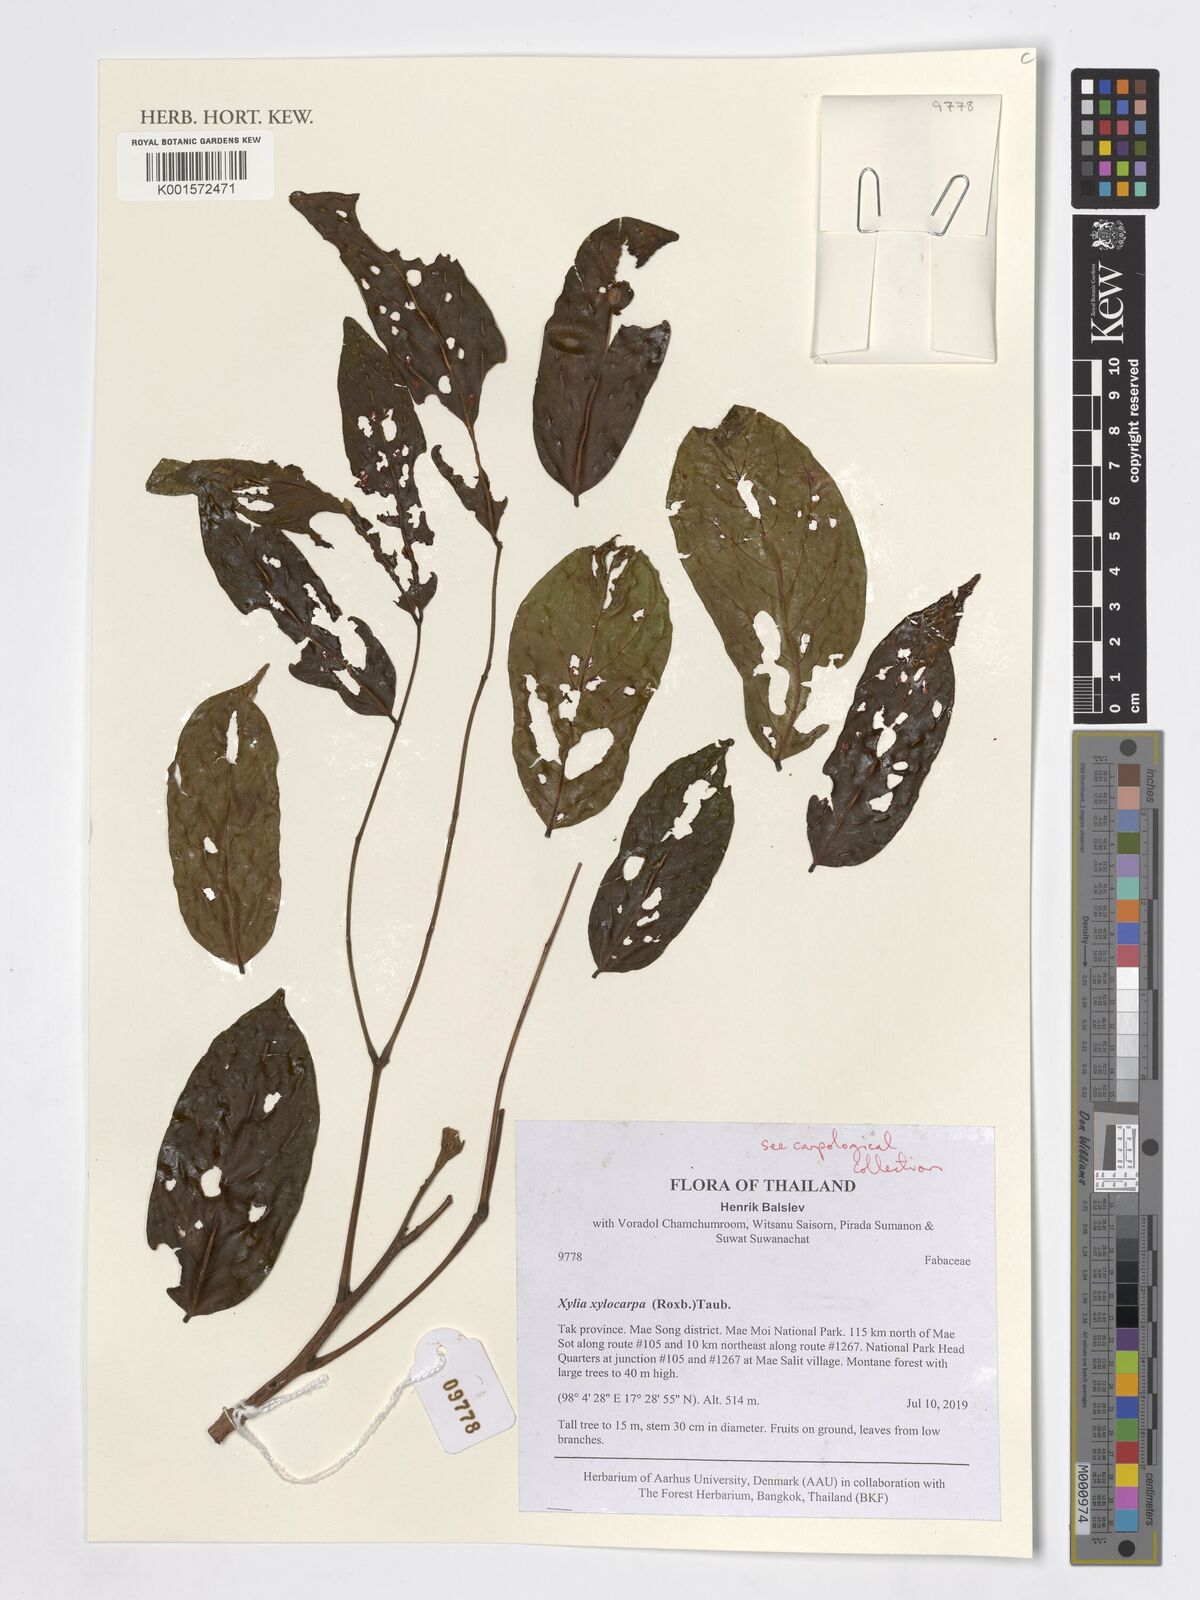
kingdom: Plantae
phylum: Tracheophyta
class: Magnoliopsida
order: Fabales
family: Fabaceae
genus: Xylia
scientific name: Xylia xylocarpa
